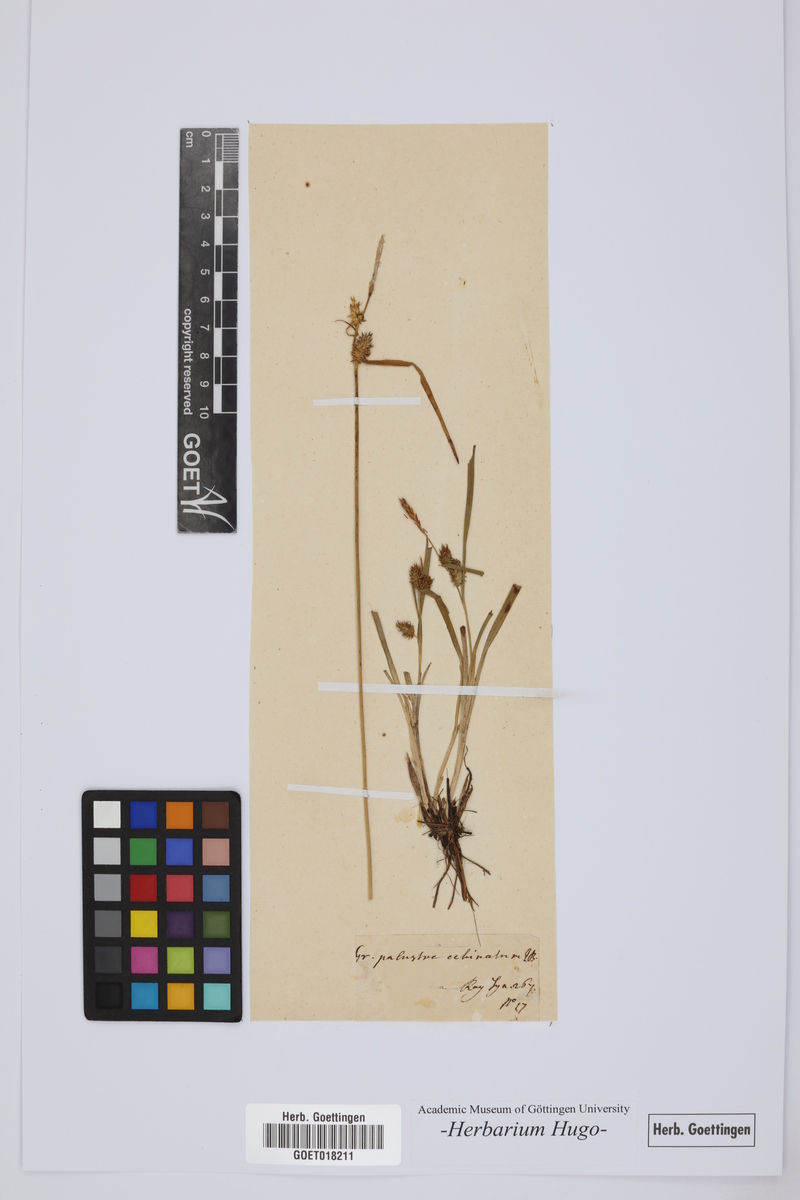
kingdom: Plantae
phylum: Tracheophyta
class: Liliopsida
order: Poales
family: Poaceae
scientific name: Poaceae
